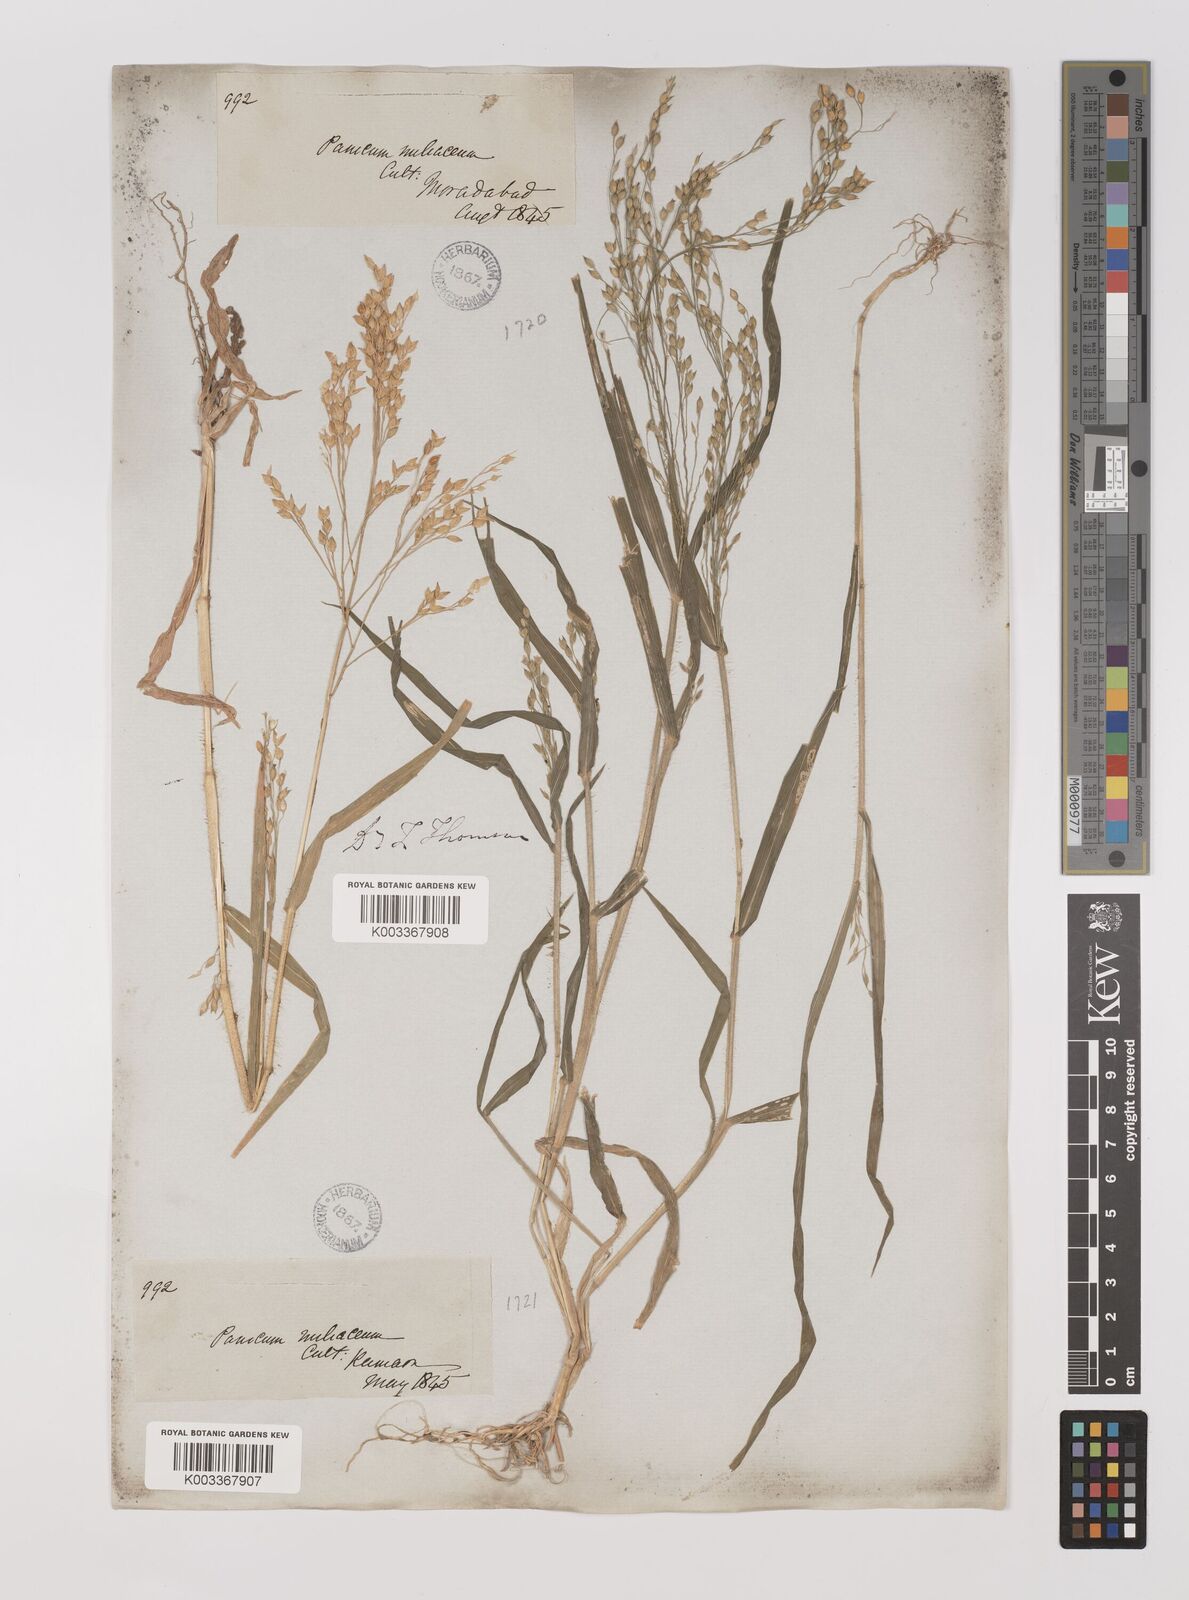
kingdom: Plantae
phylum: Tracheophyta
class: Liliopsida
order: Poales
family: Poaceae
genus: Panicum
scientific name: Panicum miliaceum
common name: Common millet
